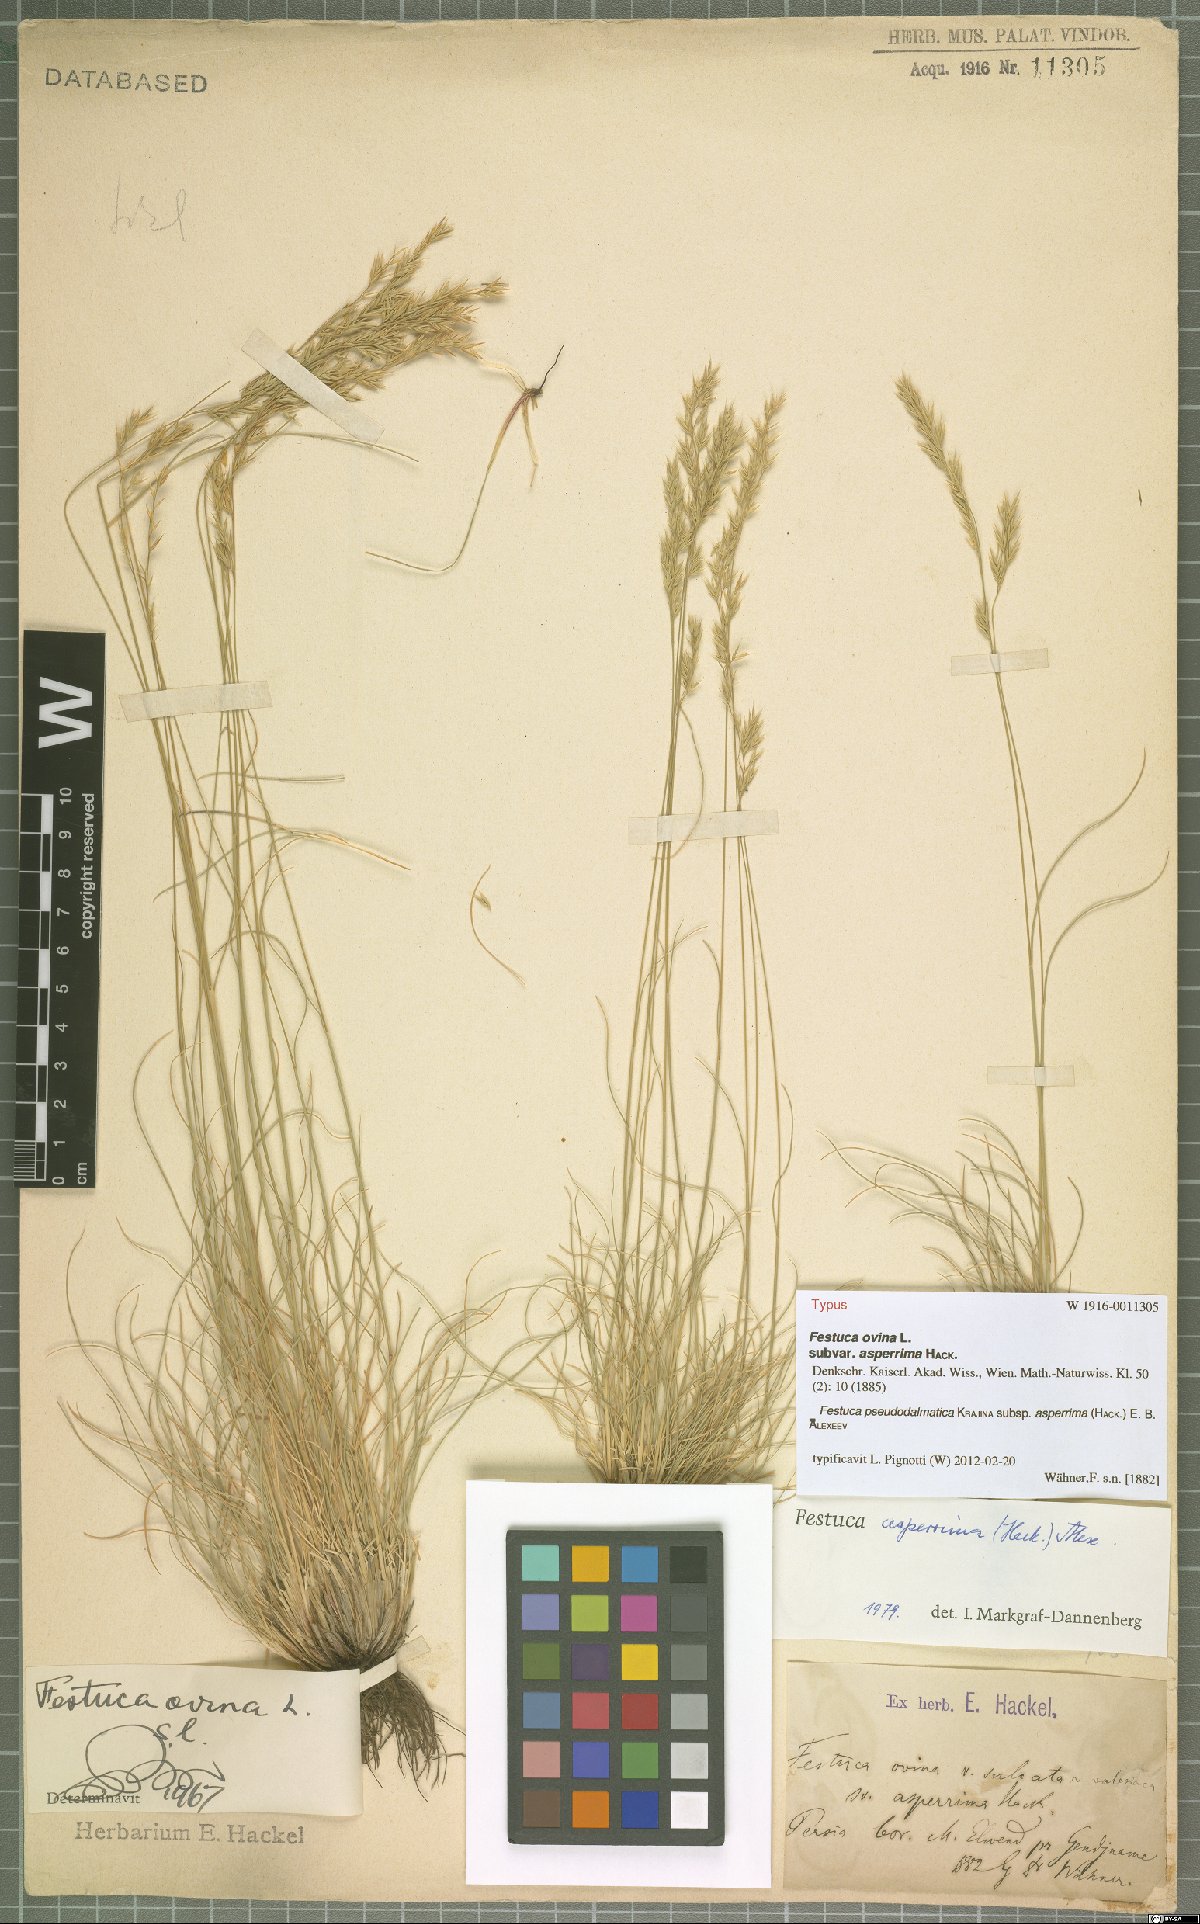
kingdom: Plantae
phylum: Tracheophyta
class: Liliopsida
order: Poales
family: Poaceae
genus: Festuca
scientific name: Festuca elwendiana
